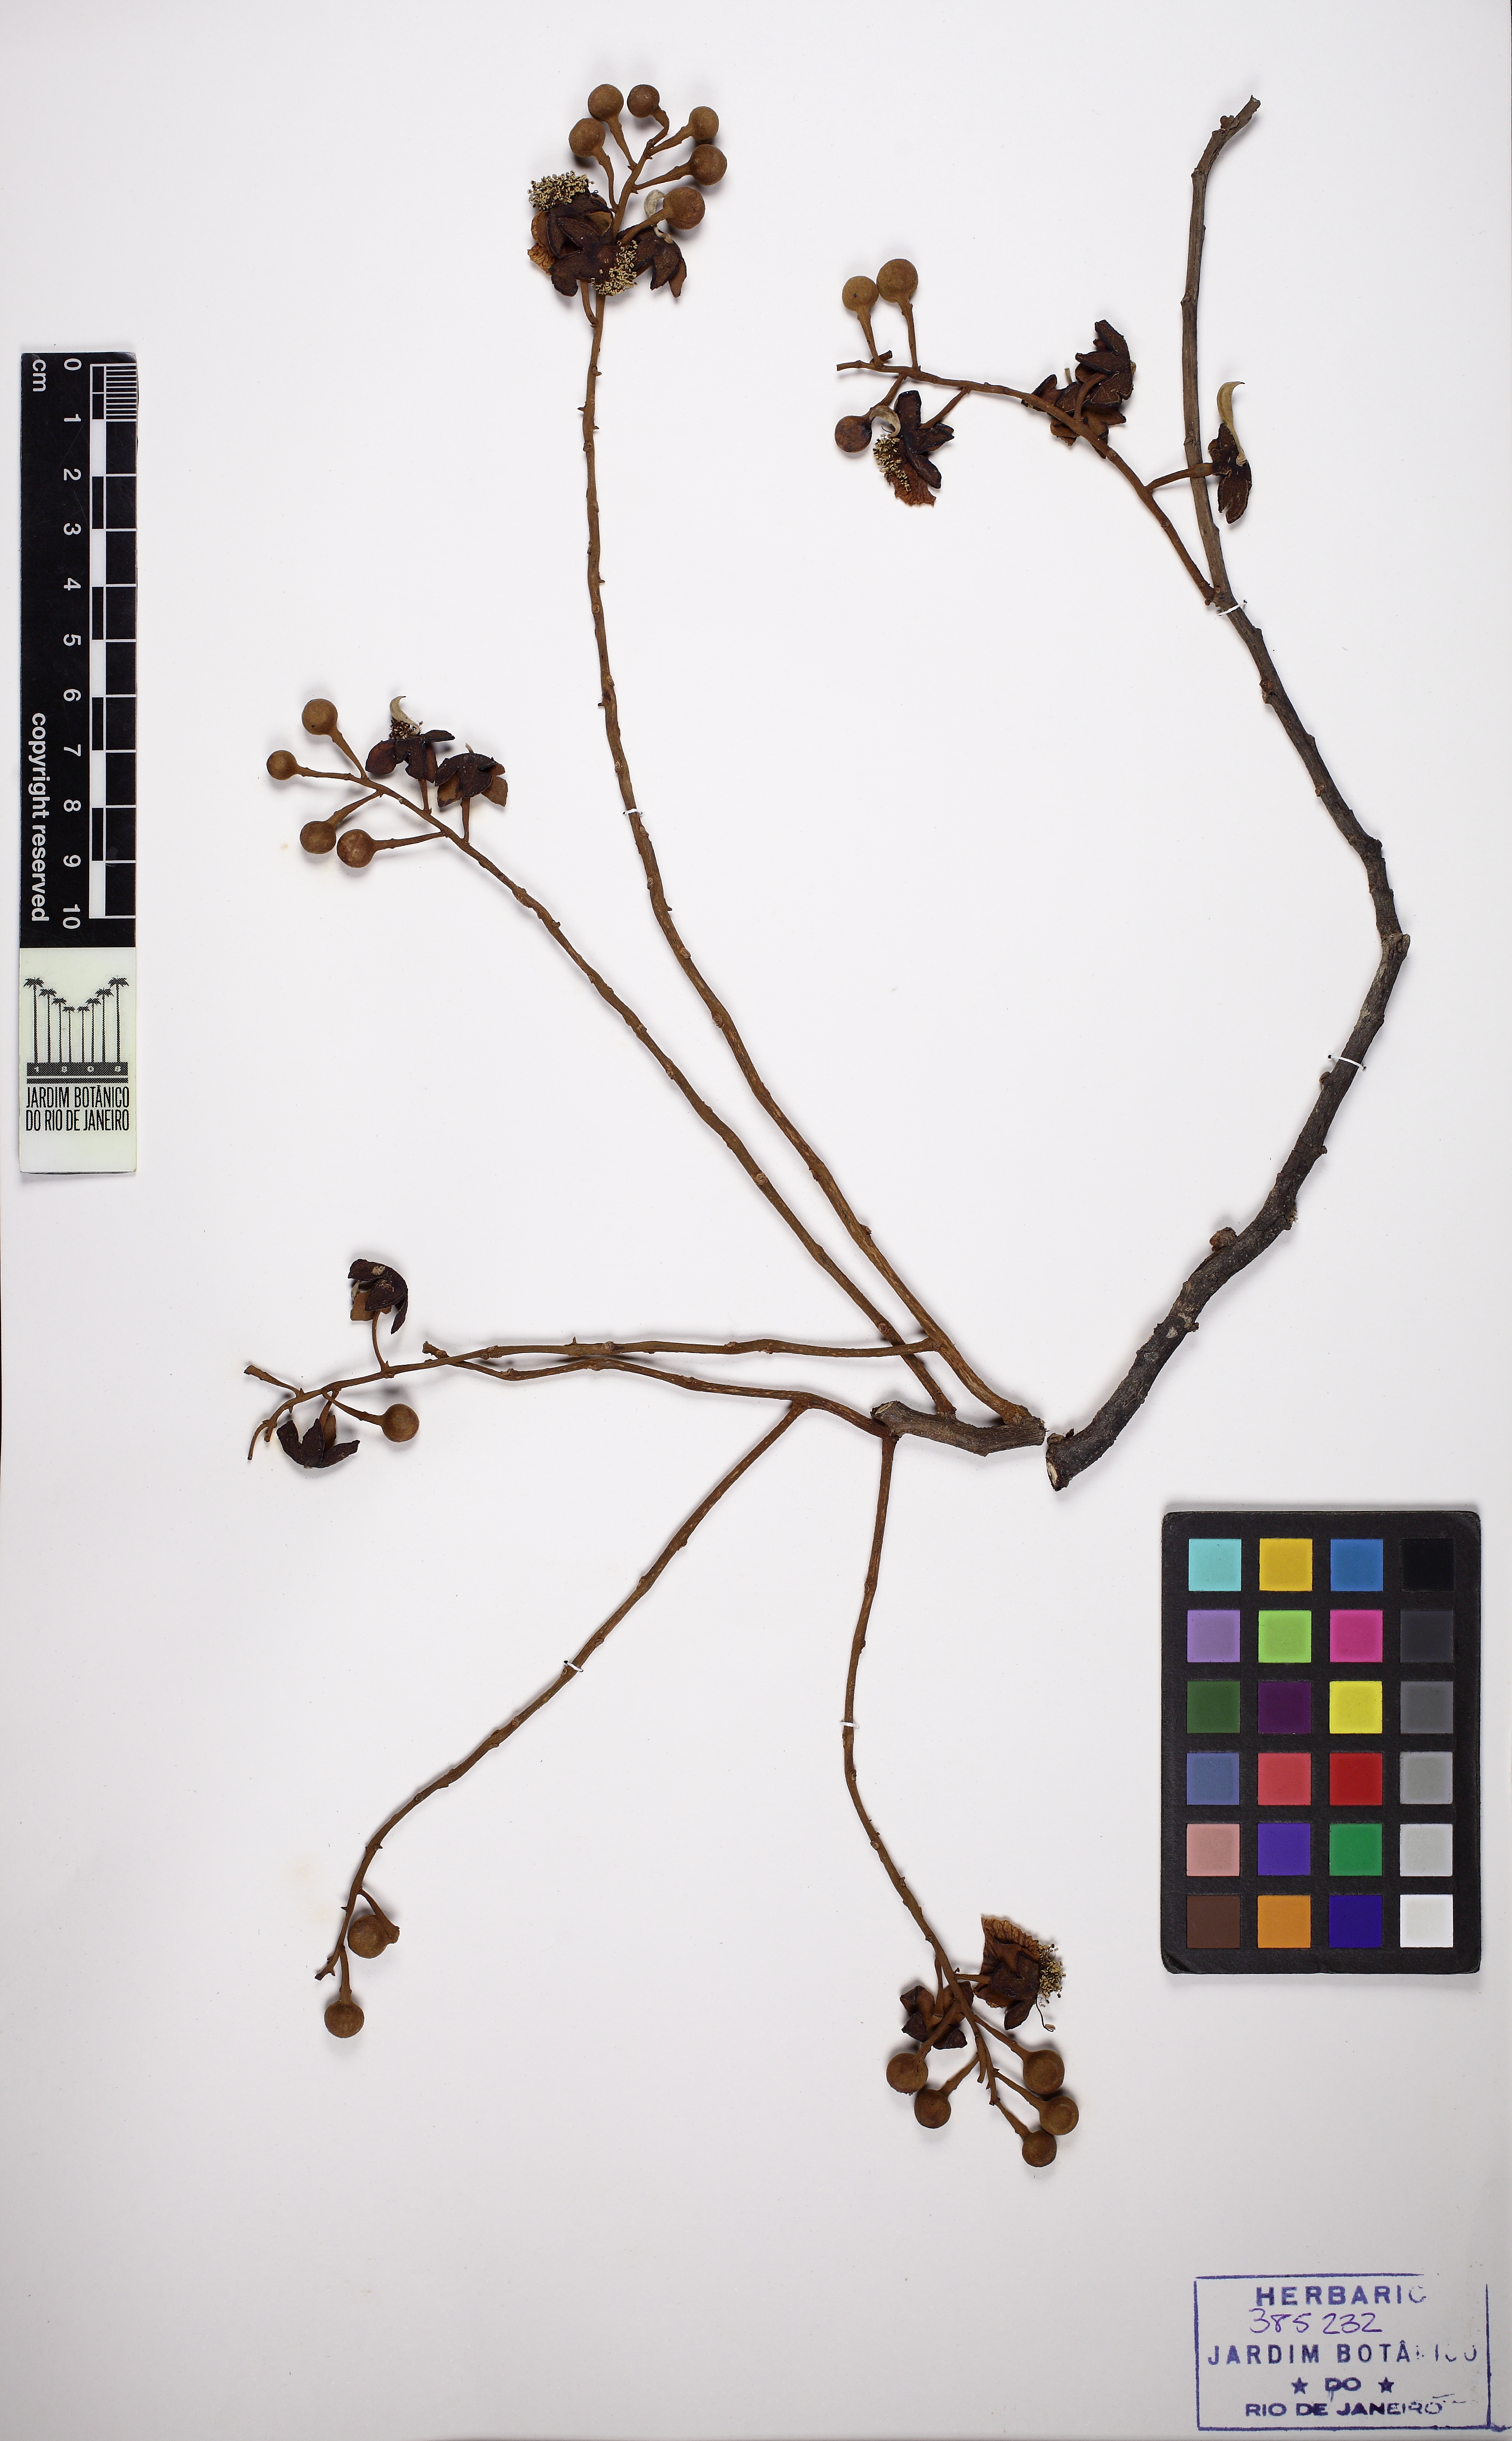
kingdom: Plantae
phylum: Tracheophyta
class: Magnoliopsida
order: Fabales
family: Fabaceae
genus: Swartzia
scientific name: Swartzia polita
